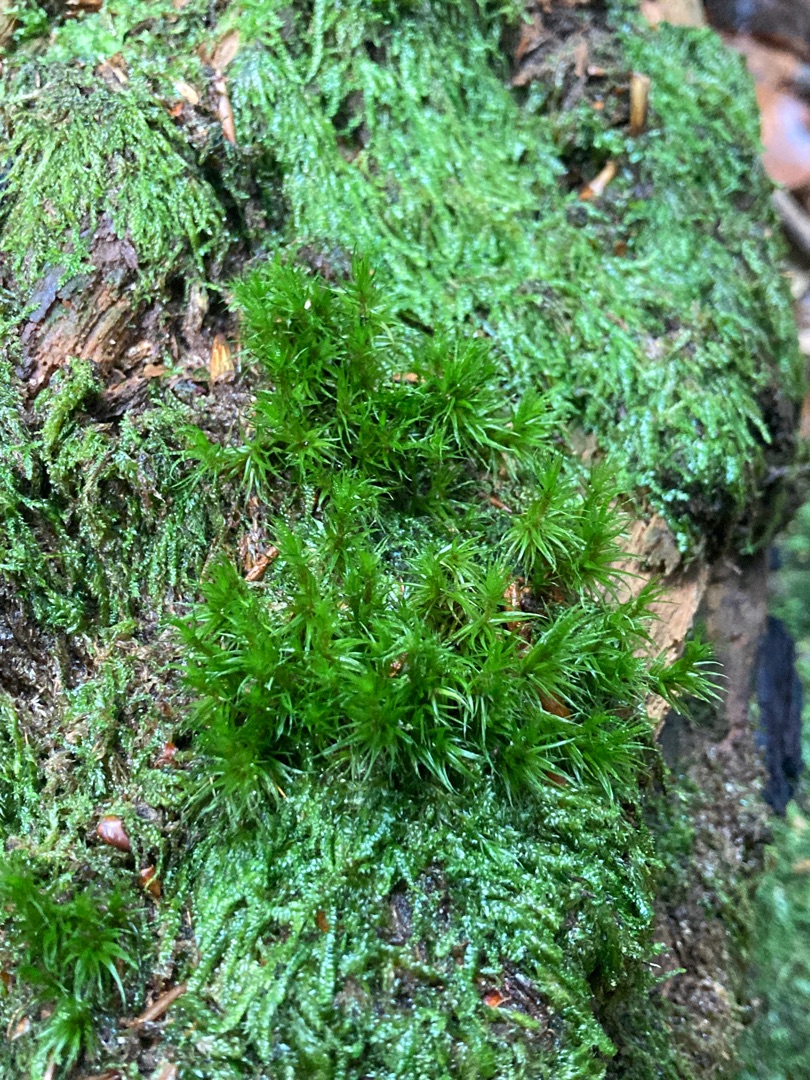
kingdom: Plantae
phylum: Bryophyta
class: Bryopsida
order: Dicranales
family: Dicranaceae
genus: Dicranum
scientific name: Dicranum scoparium
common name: Almindelig kløvtand
